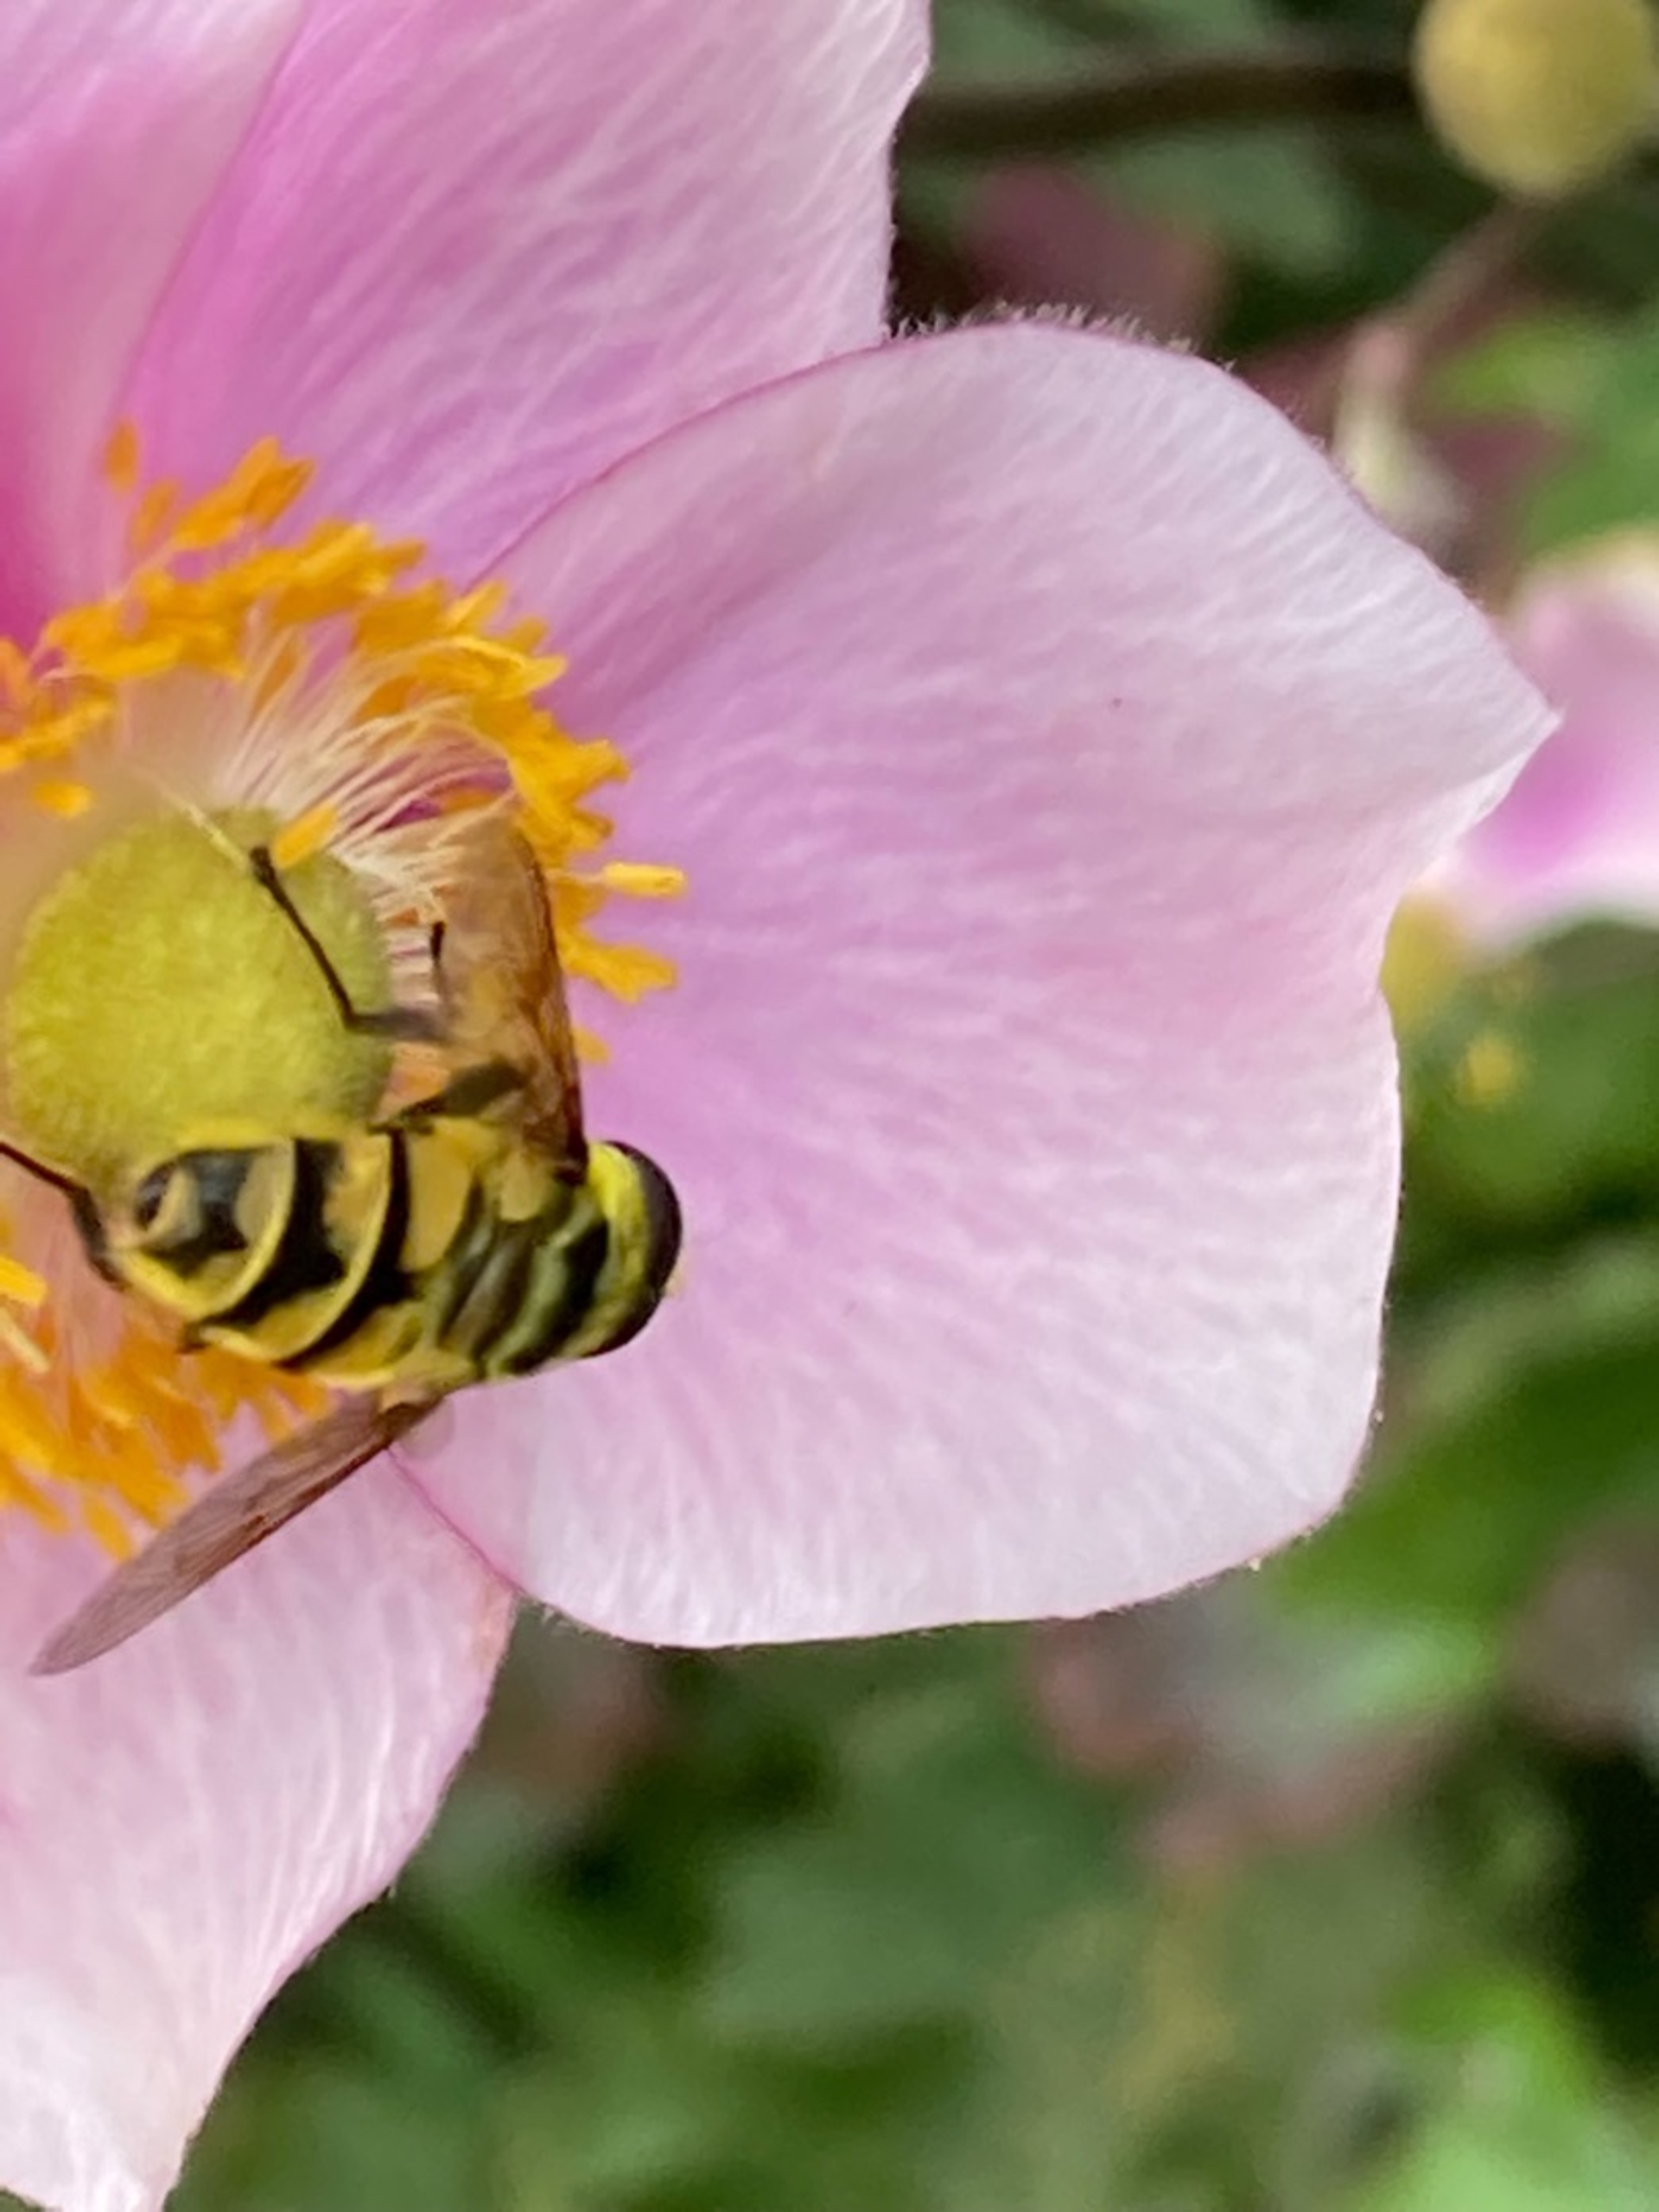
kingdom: Animalia
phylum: Arthropoda
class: Insecta
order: Diptera
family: Syrphidae
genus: Myathropa
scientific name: Myathropa florea
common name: Dødningehoved-svirreflue
